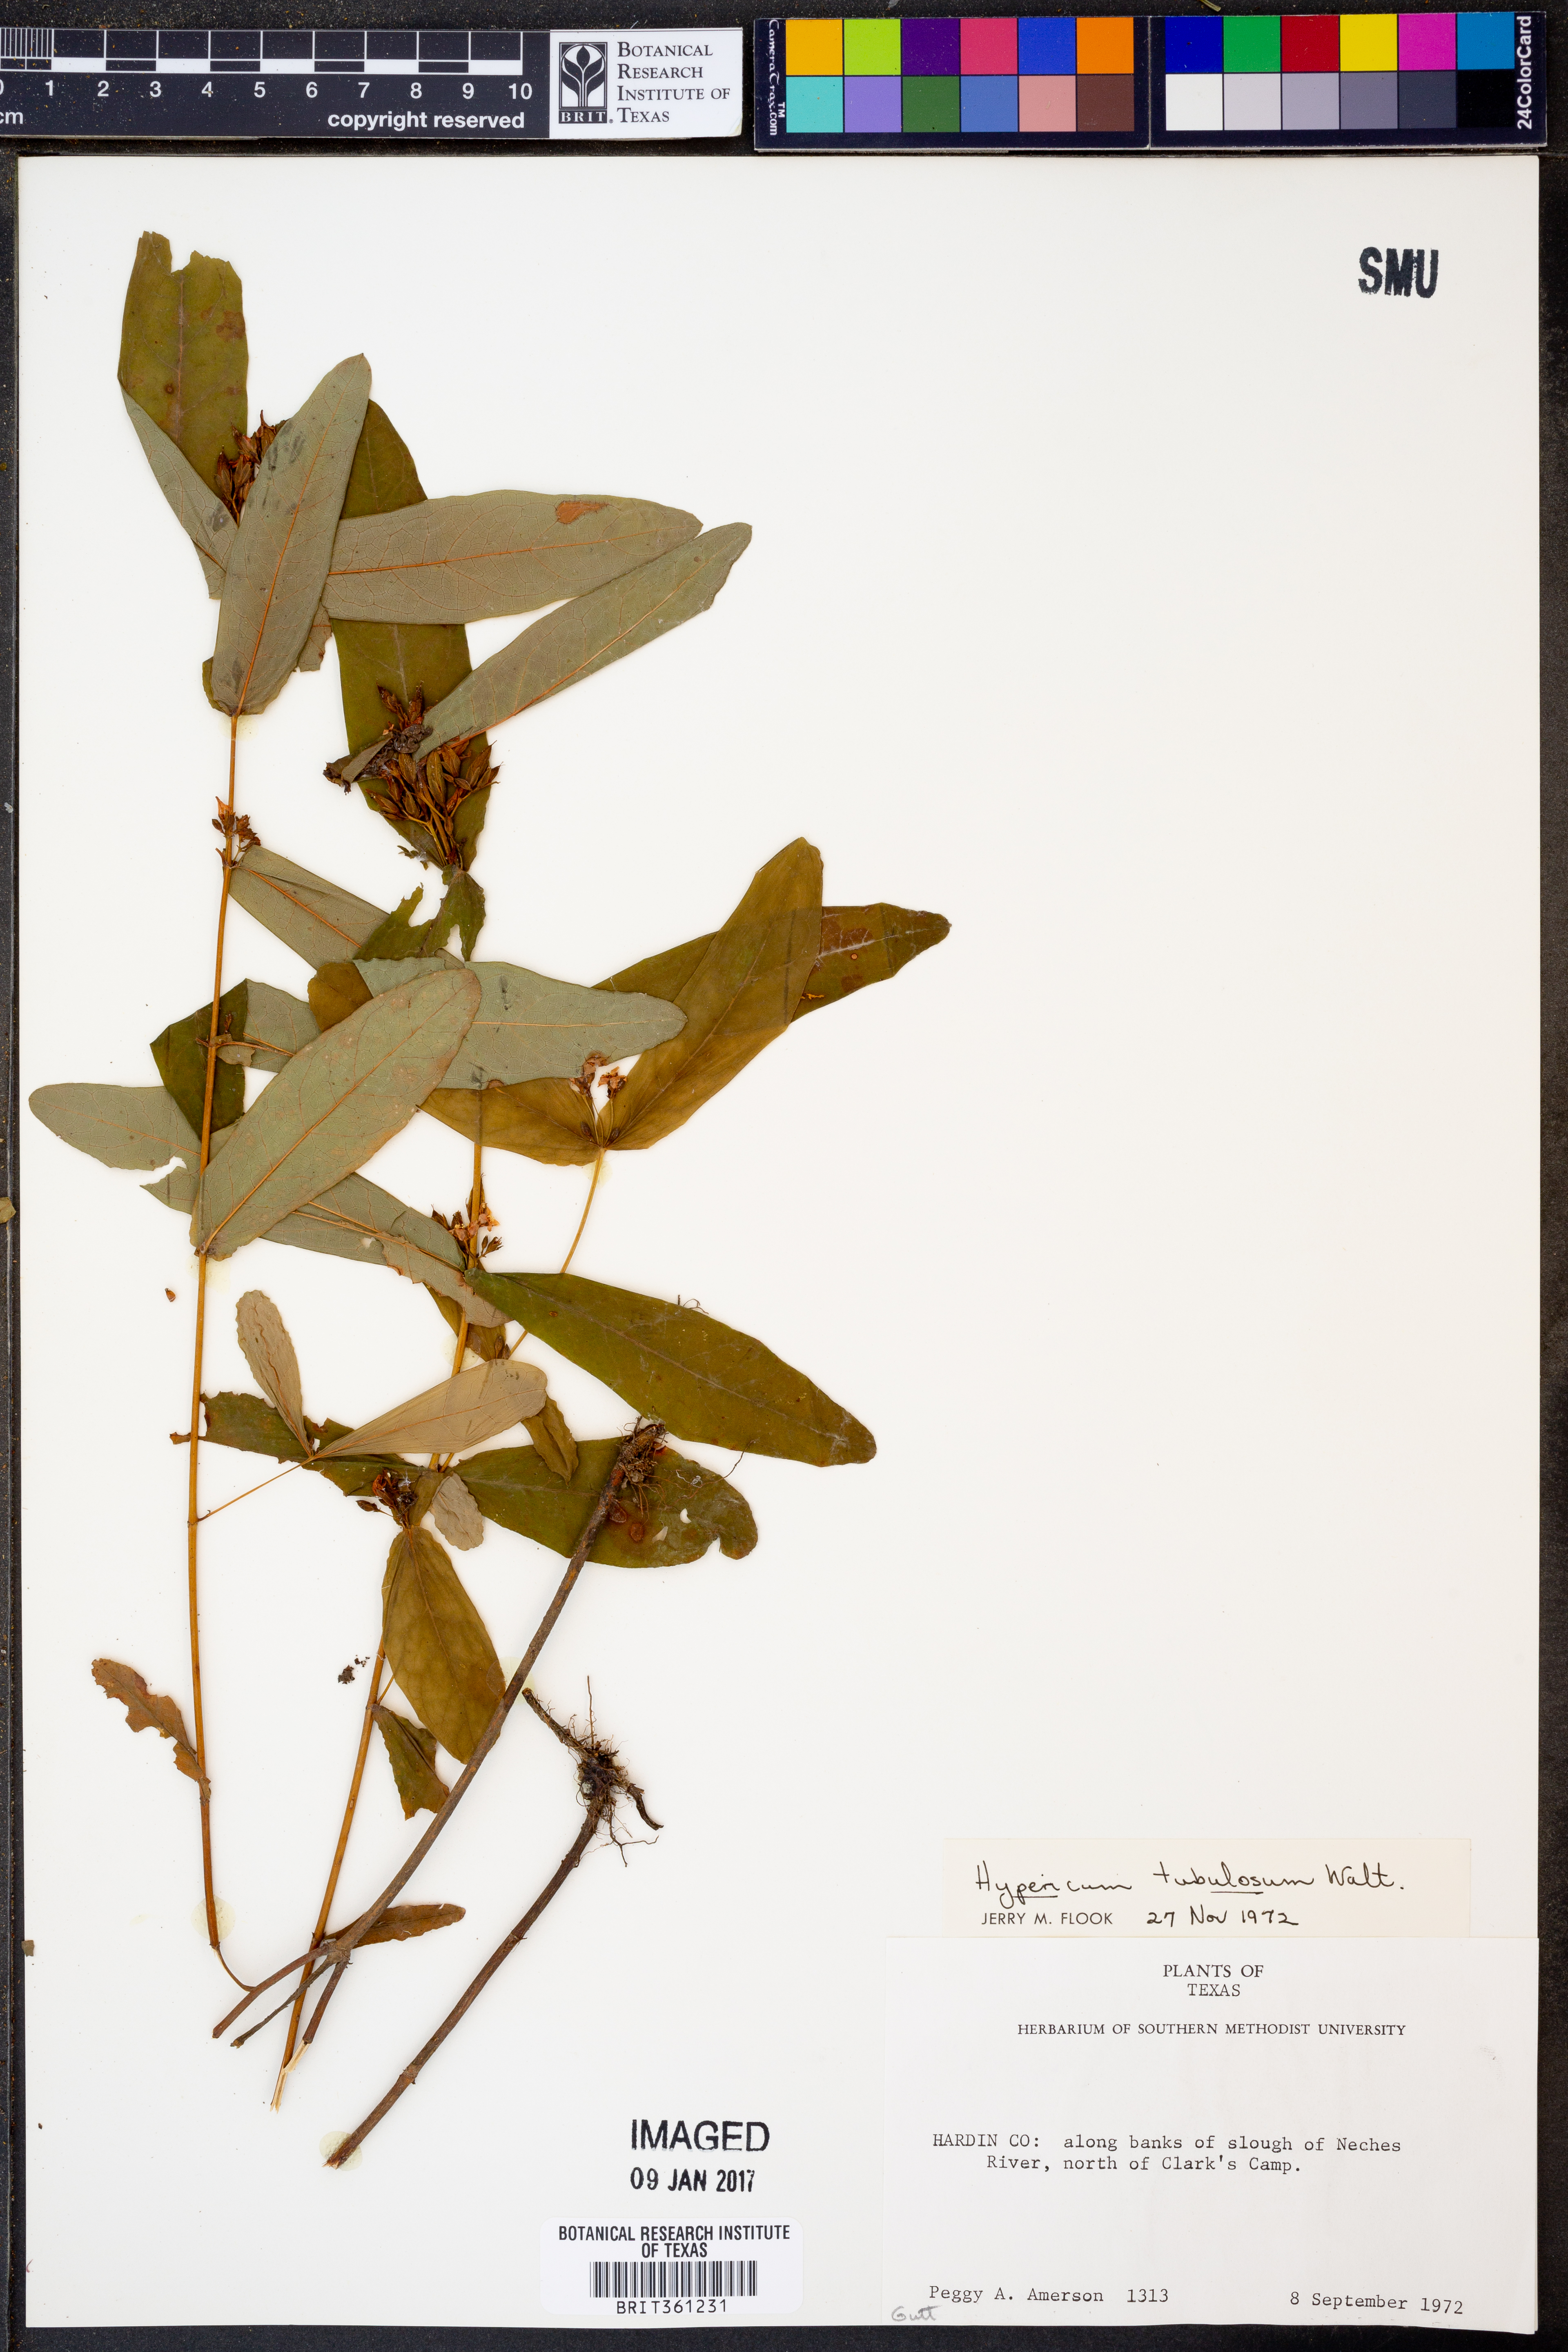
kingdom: Plantae
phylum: Tracheophyta
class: Magnoliopsida
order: Malpighiales
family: Hypericaceae
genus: Triadenum
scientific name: Triadenum tubulosum
